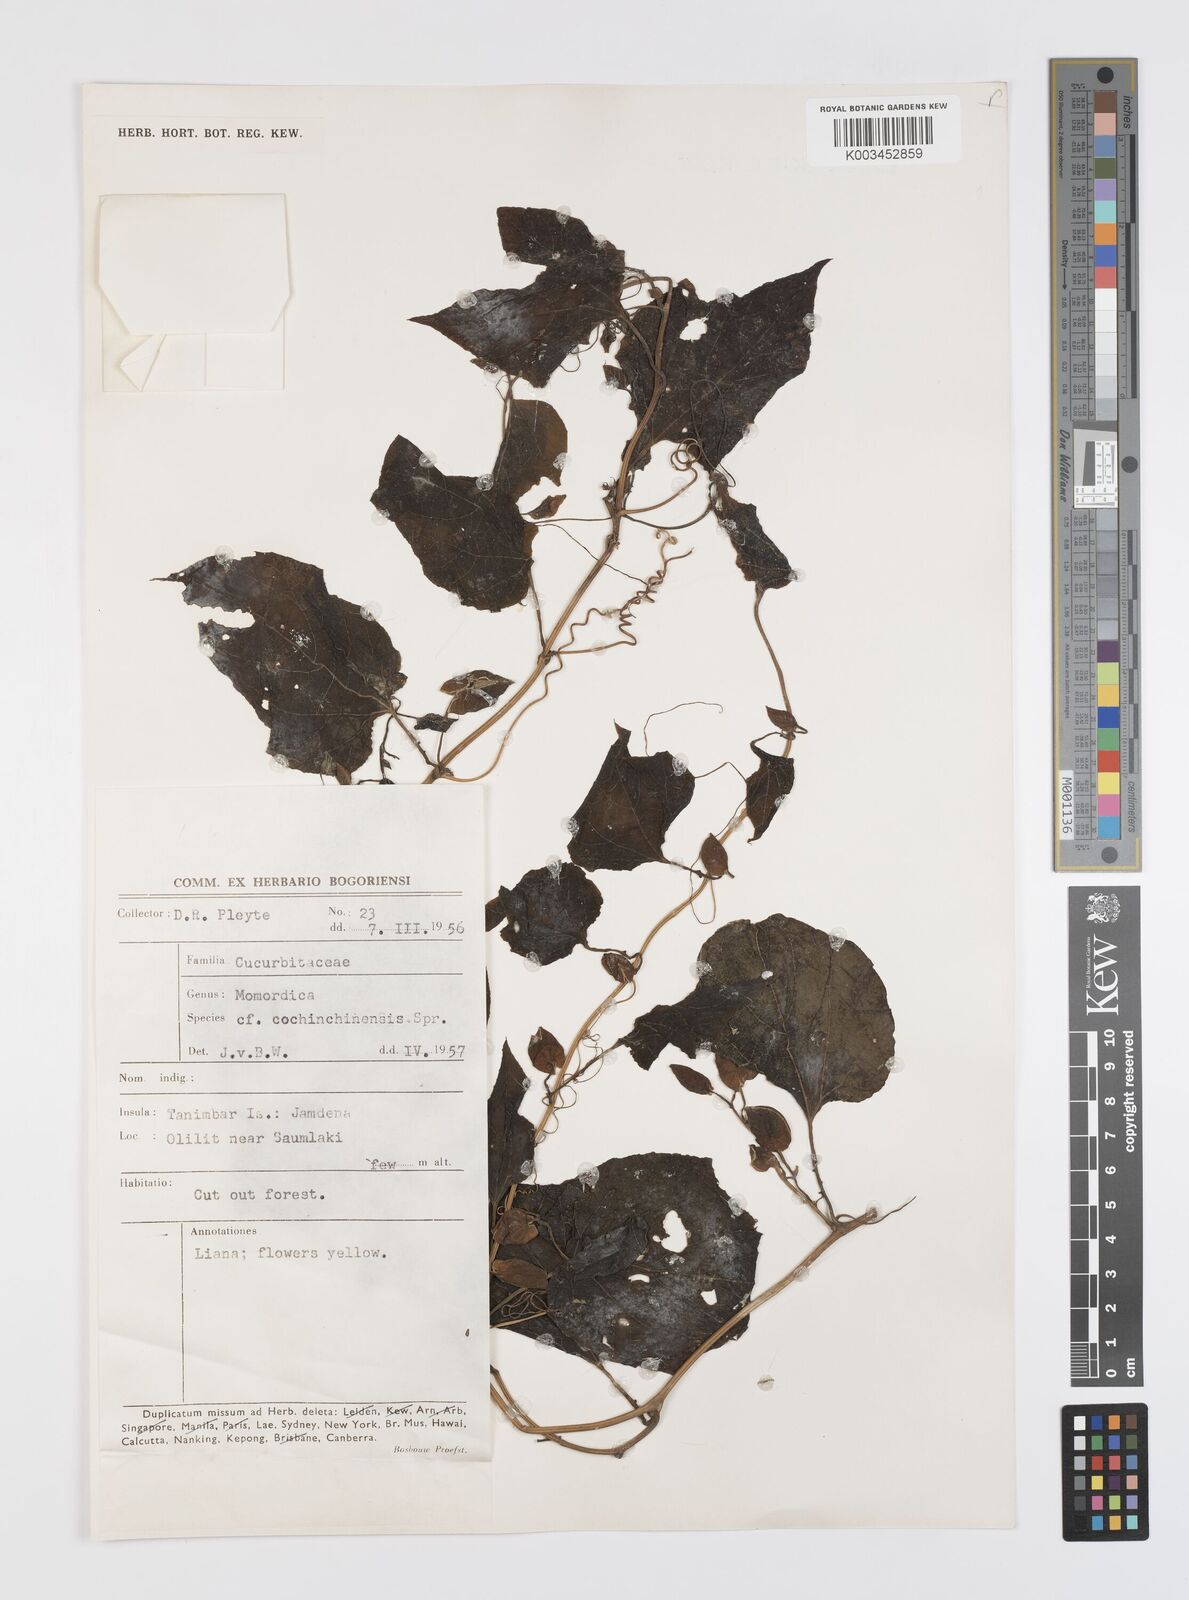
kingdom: Plantae
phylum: Tracheophyta
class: Magnoliopsida
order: Cucurbitales
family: Cucurbitaceae
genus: Momordica
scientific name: Momordica cochinchinensis
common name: Chinese bitter-cucumber
